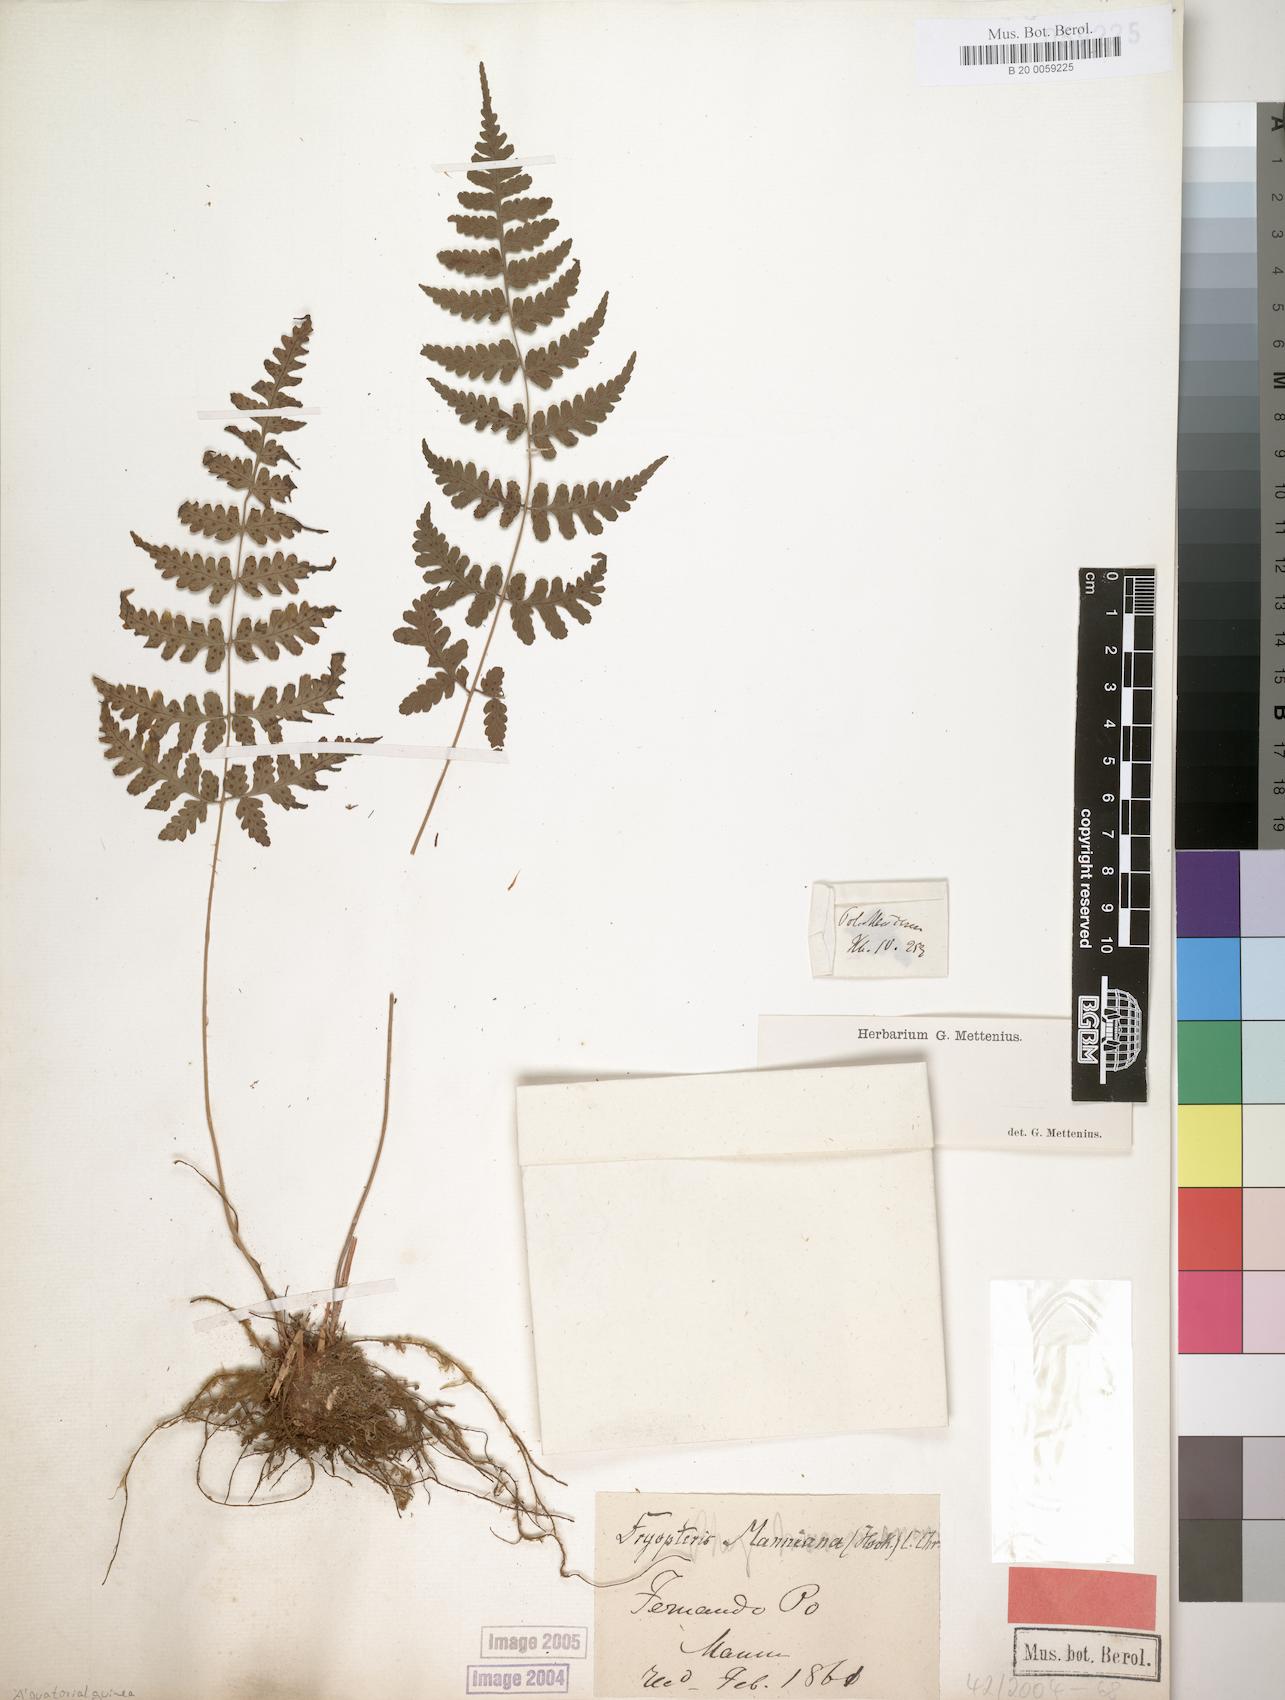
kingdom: Plantae
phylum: Tracheophyta
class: Polypodiopsida
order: Polypodiales
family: Dryopteridaceae
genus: Dryopteris
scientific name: Dryopteris manniana
